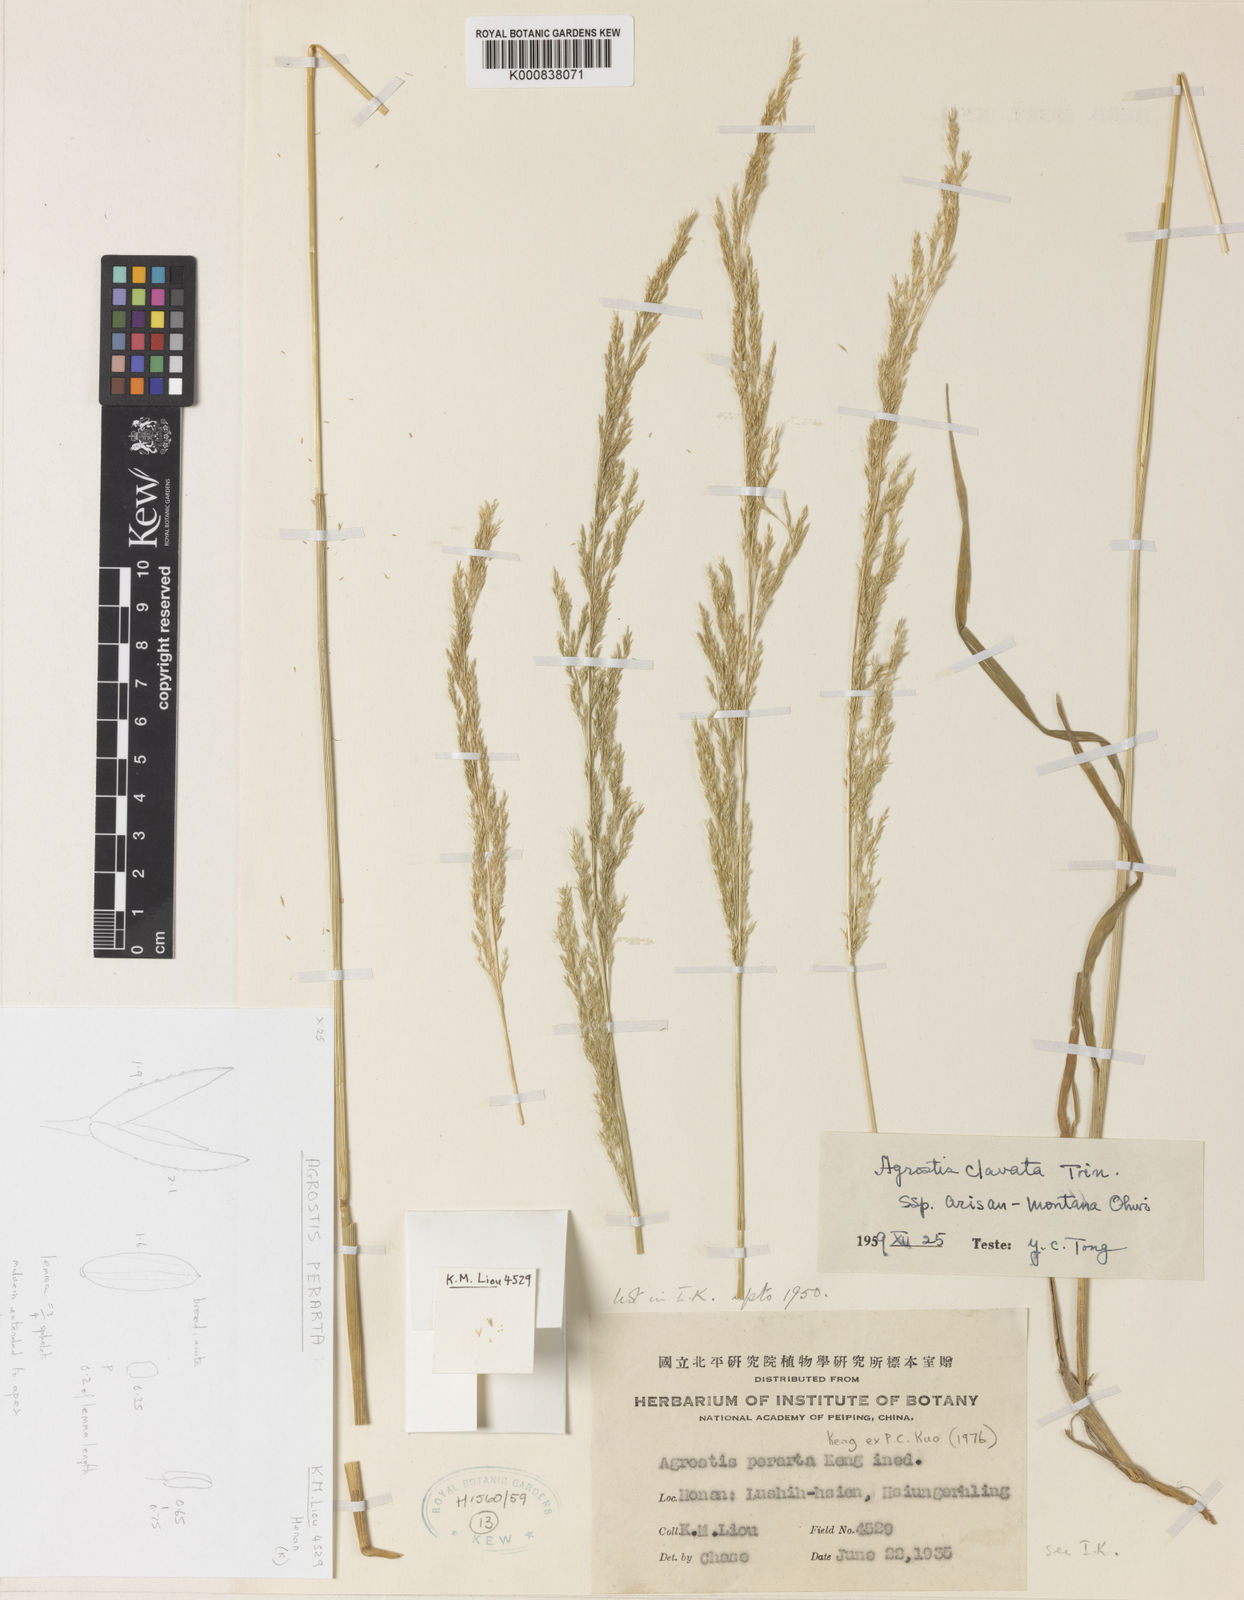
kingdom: Plantae
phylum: Tracheophyta
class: Liliopsida
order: Poales
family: Poaceae
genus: Agrostis
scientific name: Agrostis infirma
